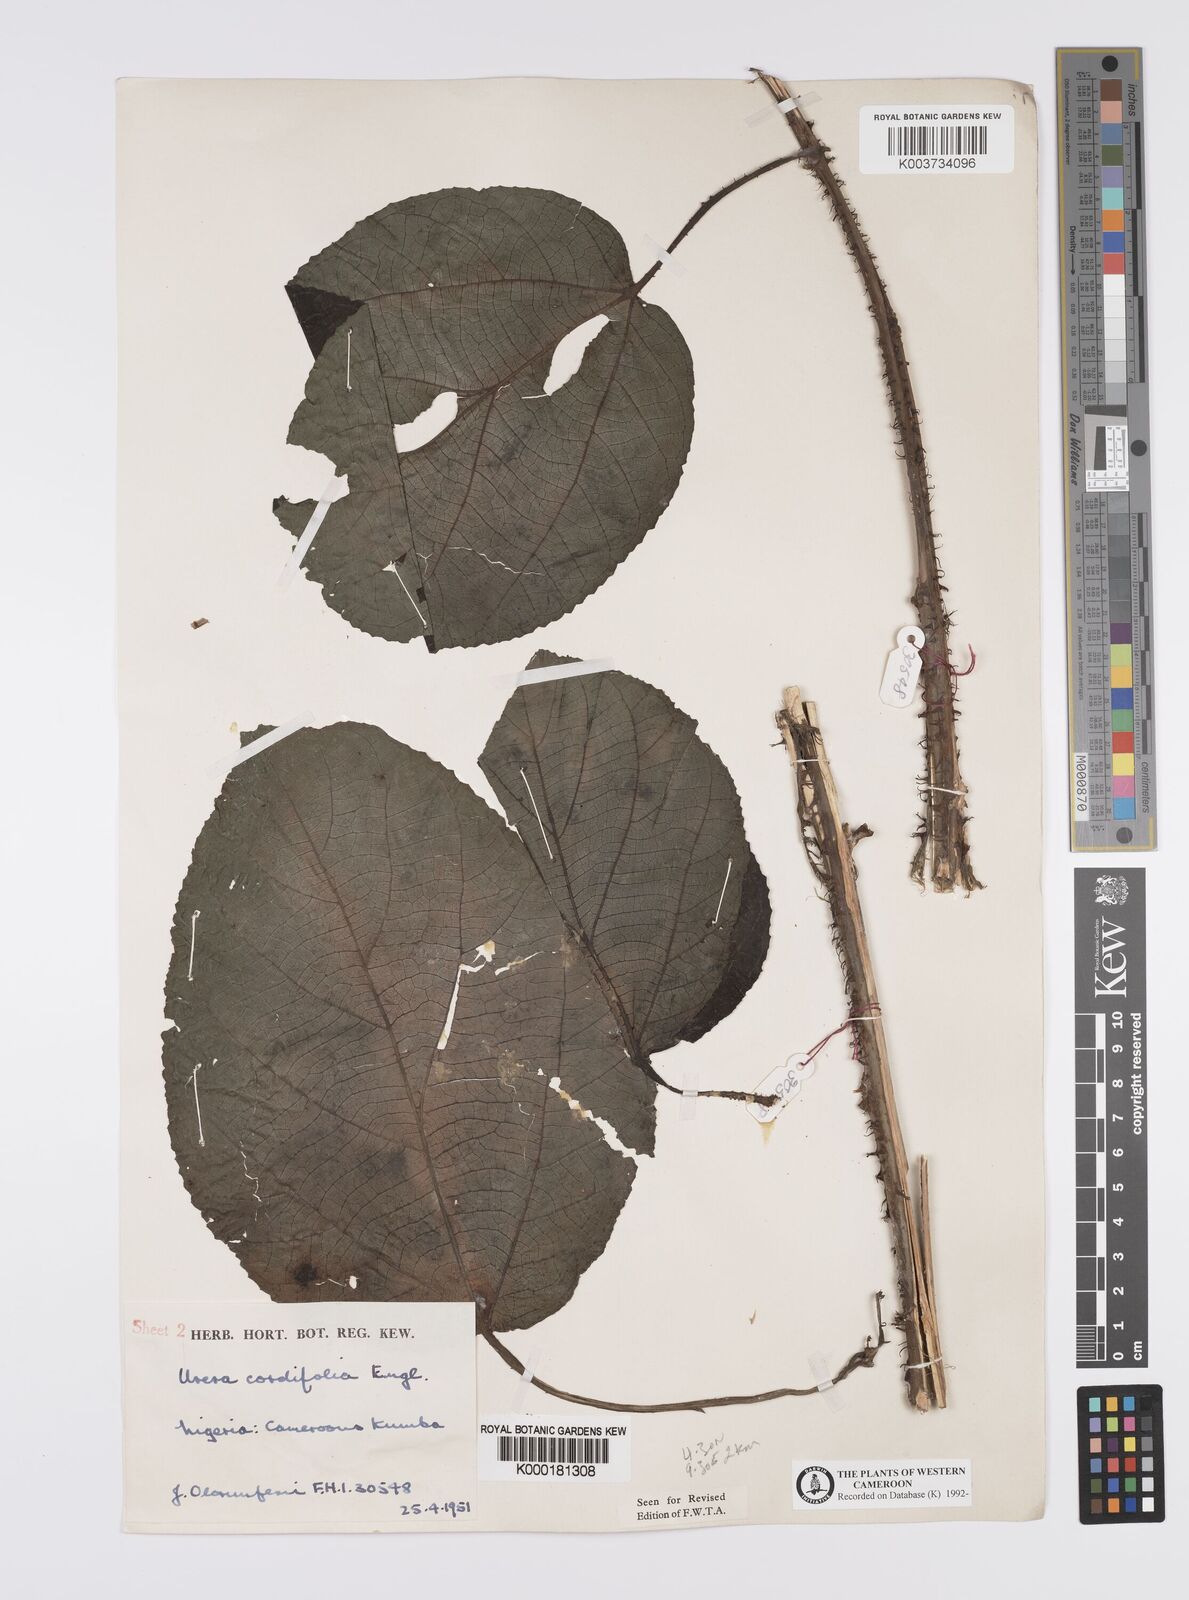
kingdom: Plantae
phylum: Tracheophyta
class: Magnoliopsida
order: Rosales
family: Urticaceae
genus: Scepocarpus
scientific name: Scepocarpus cordifolius
